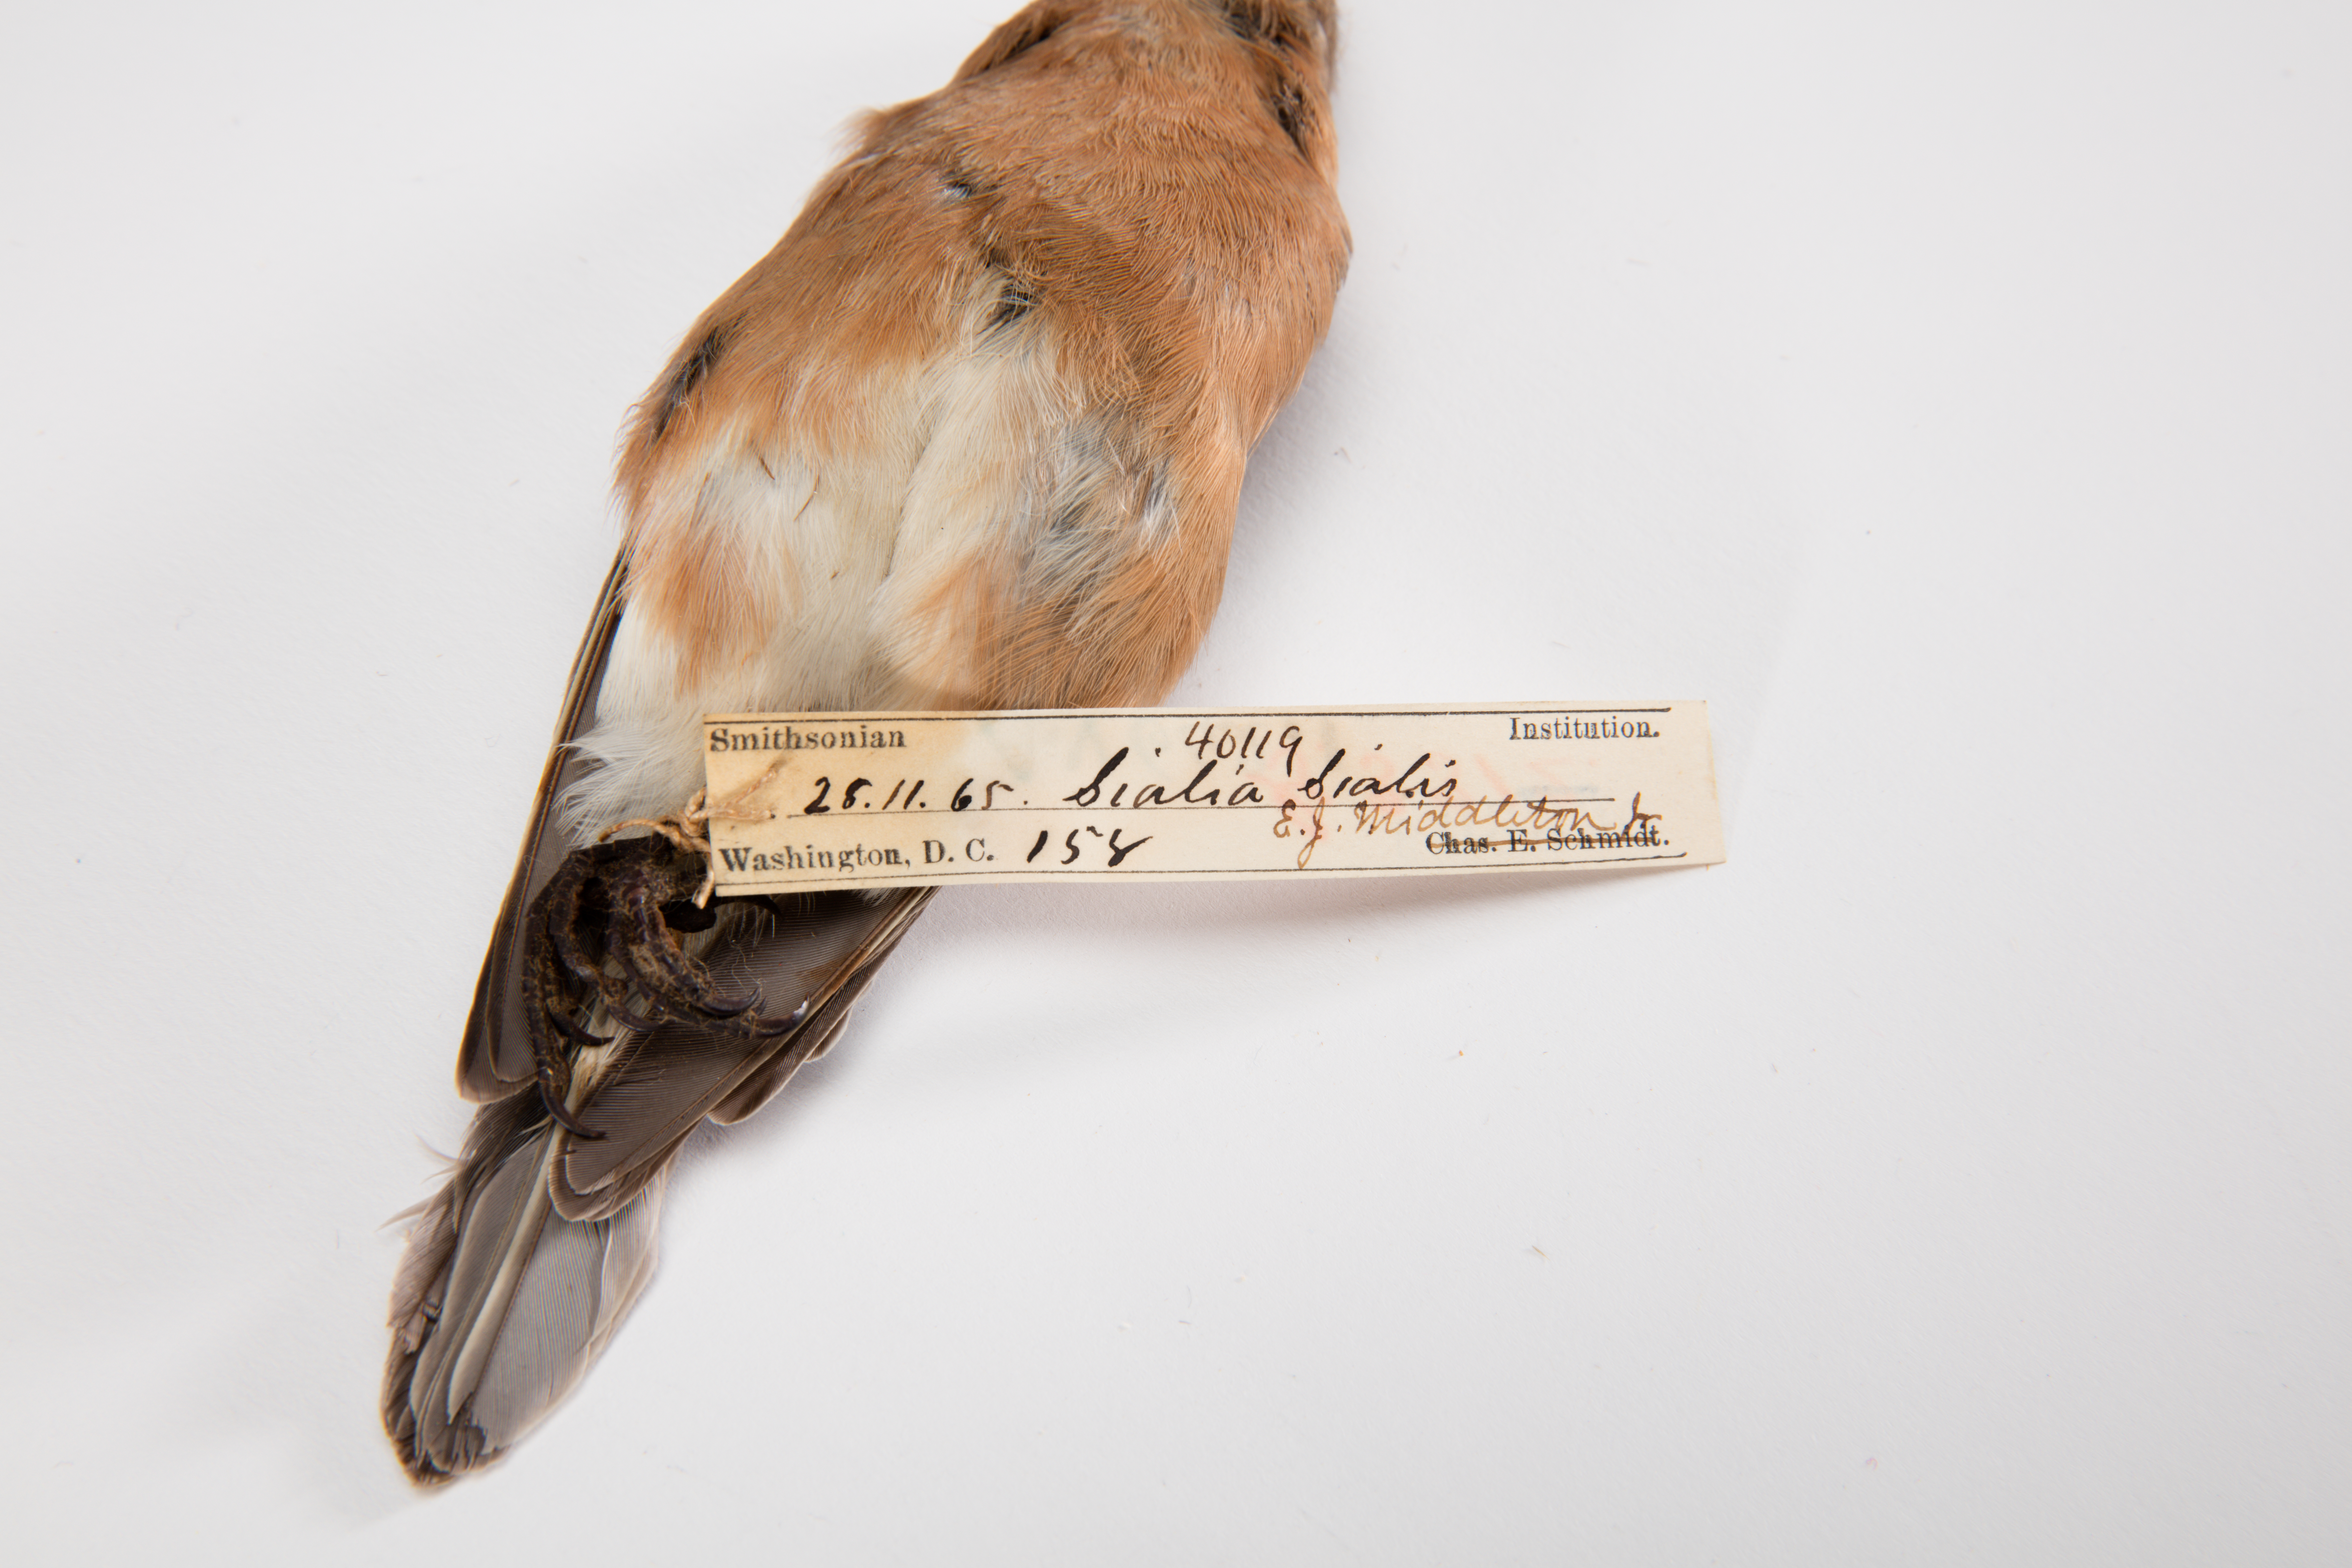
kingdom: Animalia
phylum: Chordata
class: Aves
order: Passeriformes
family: Turdidae
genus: Sialia
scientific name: Sialia sialis
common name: Eastern bluebird
